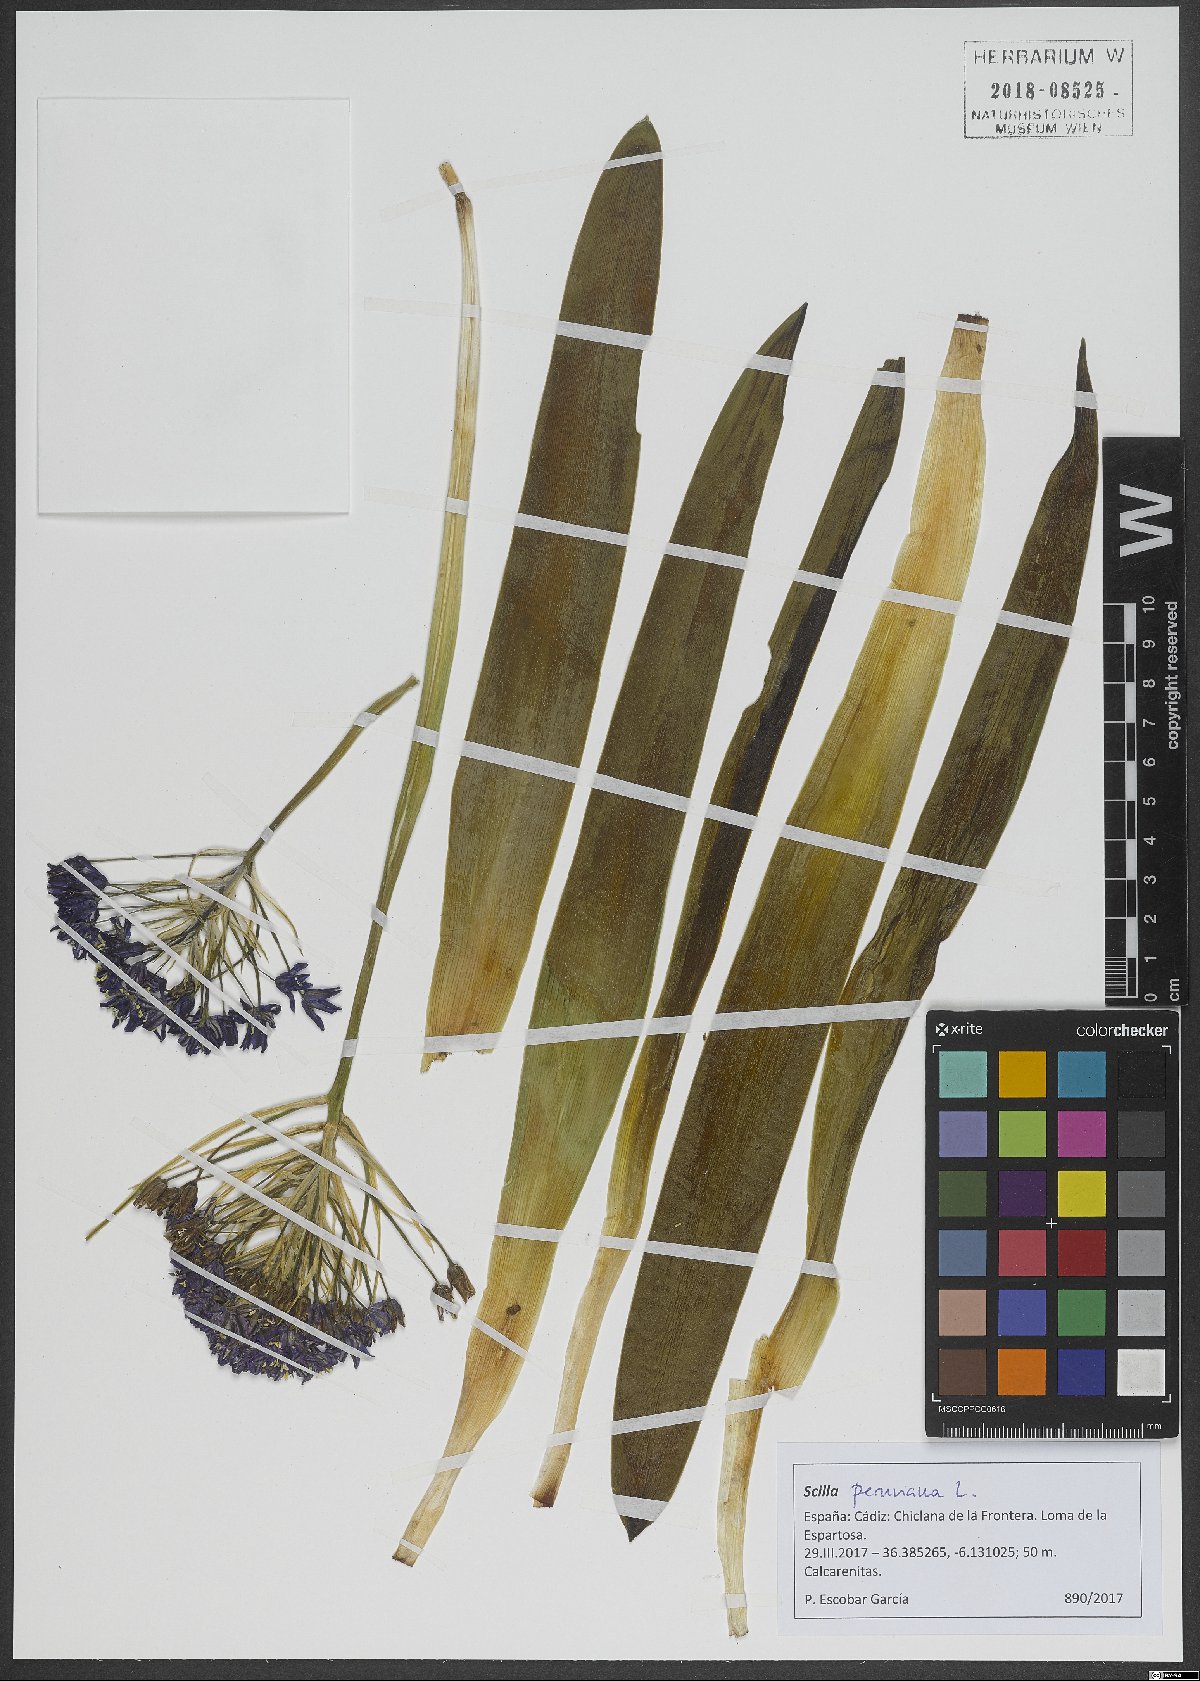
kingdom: Plantae
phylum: Tracheophyta
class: Liliopsida
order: Asparagales
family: Asparagaceae
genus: Scilla
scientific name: Scilla peruviana
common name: Portuguese squill
